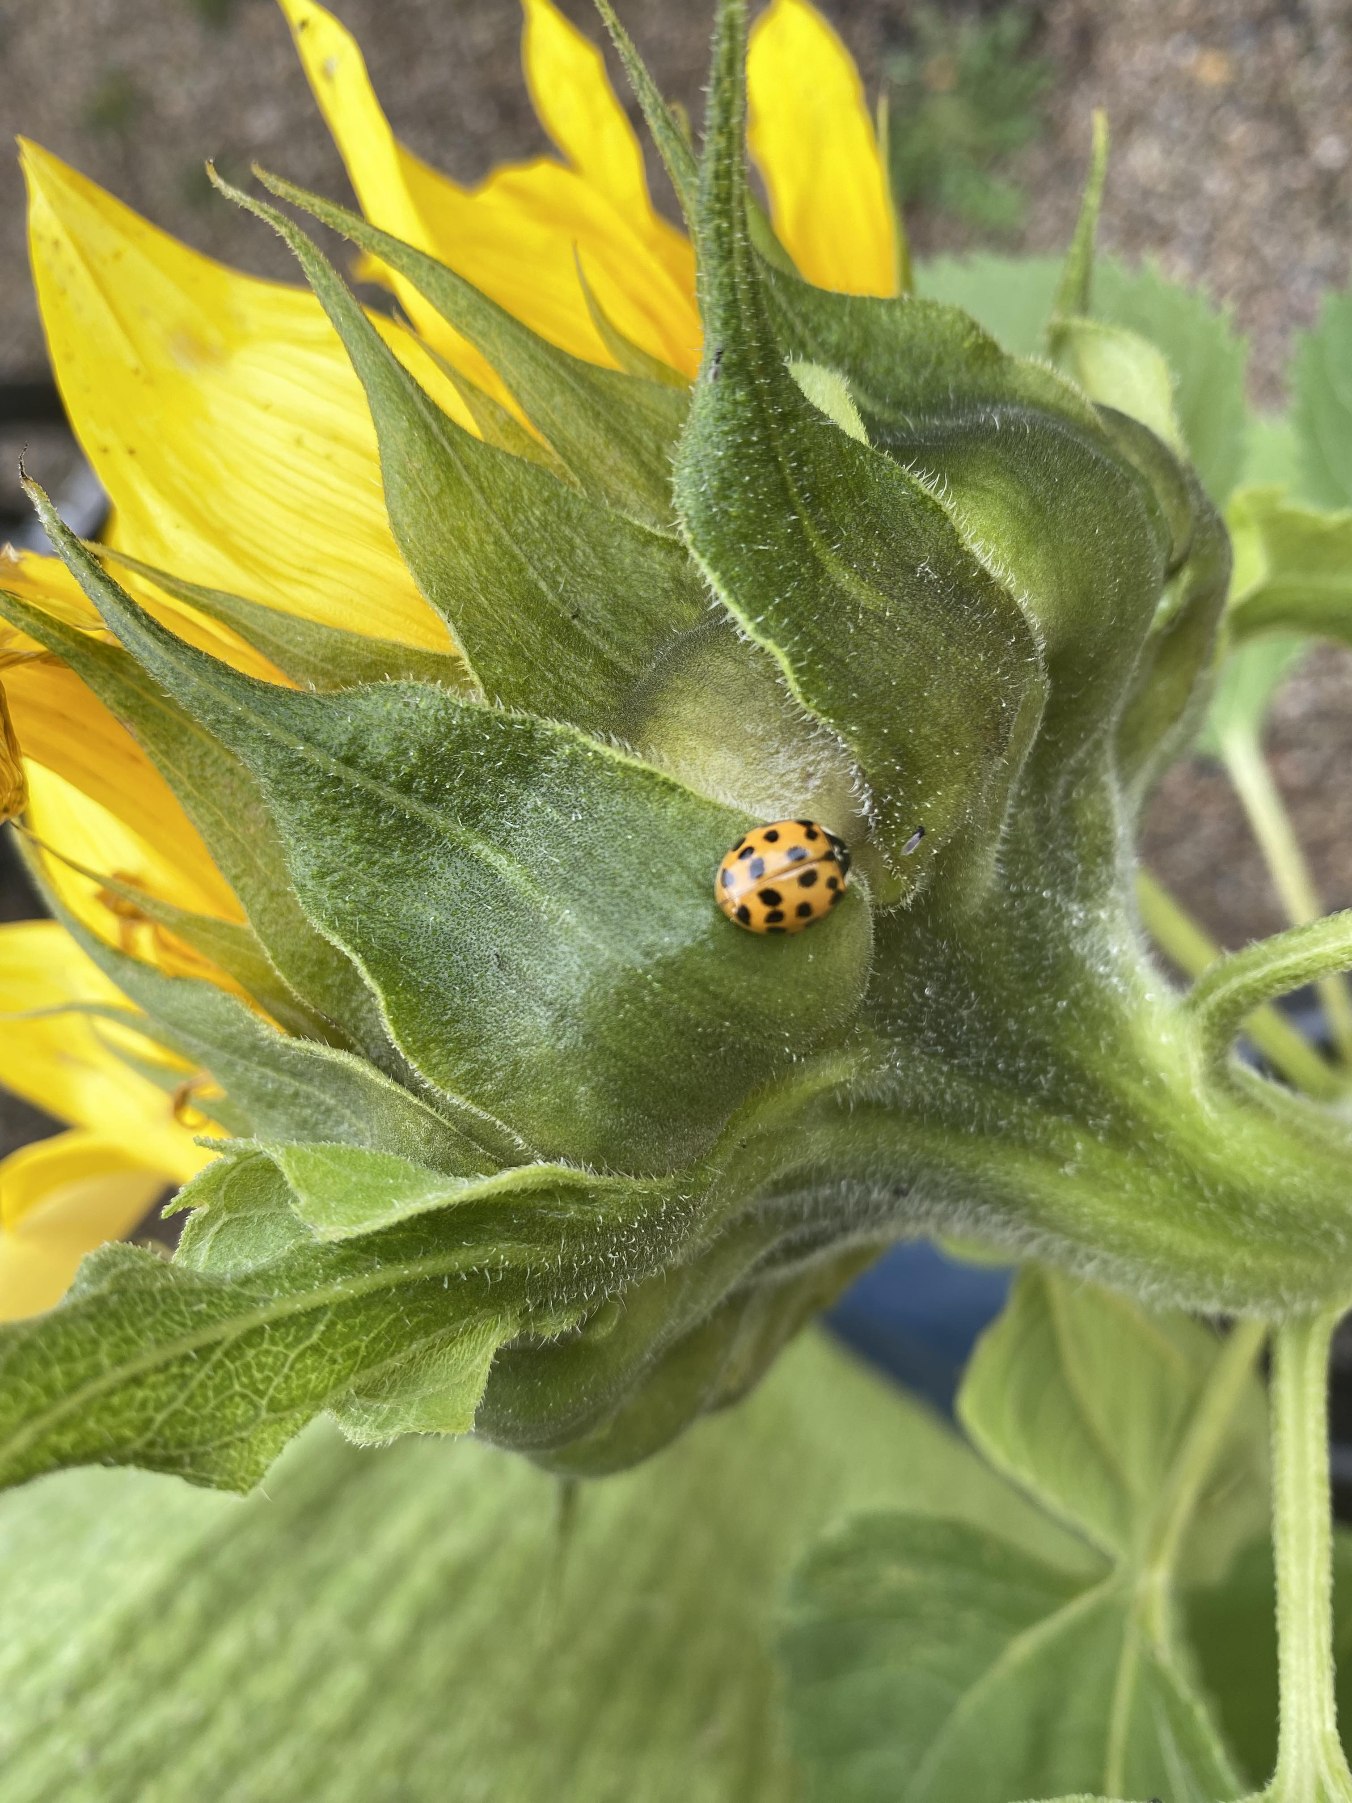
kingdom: Animalia
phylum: Arthropoda
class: Insecta
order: Coleoptera
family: Coccinellidae
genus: Harmonia
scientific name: Harmonia axyridis
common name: Harlekinmariehøne
